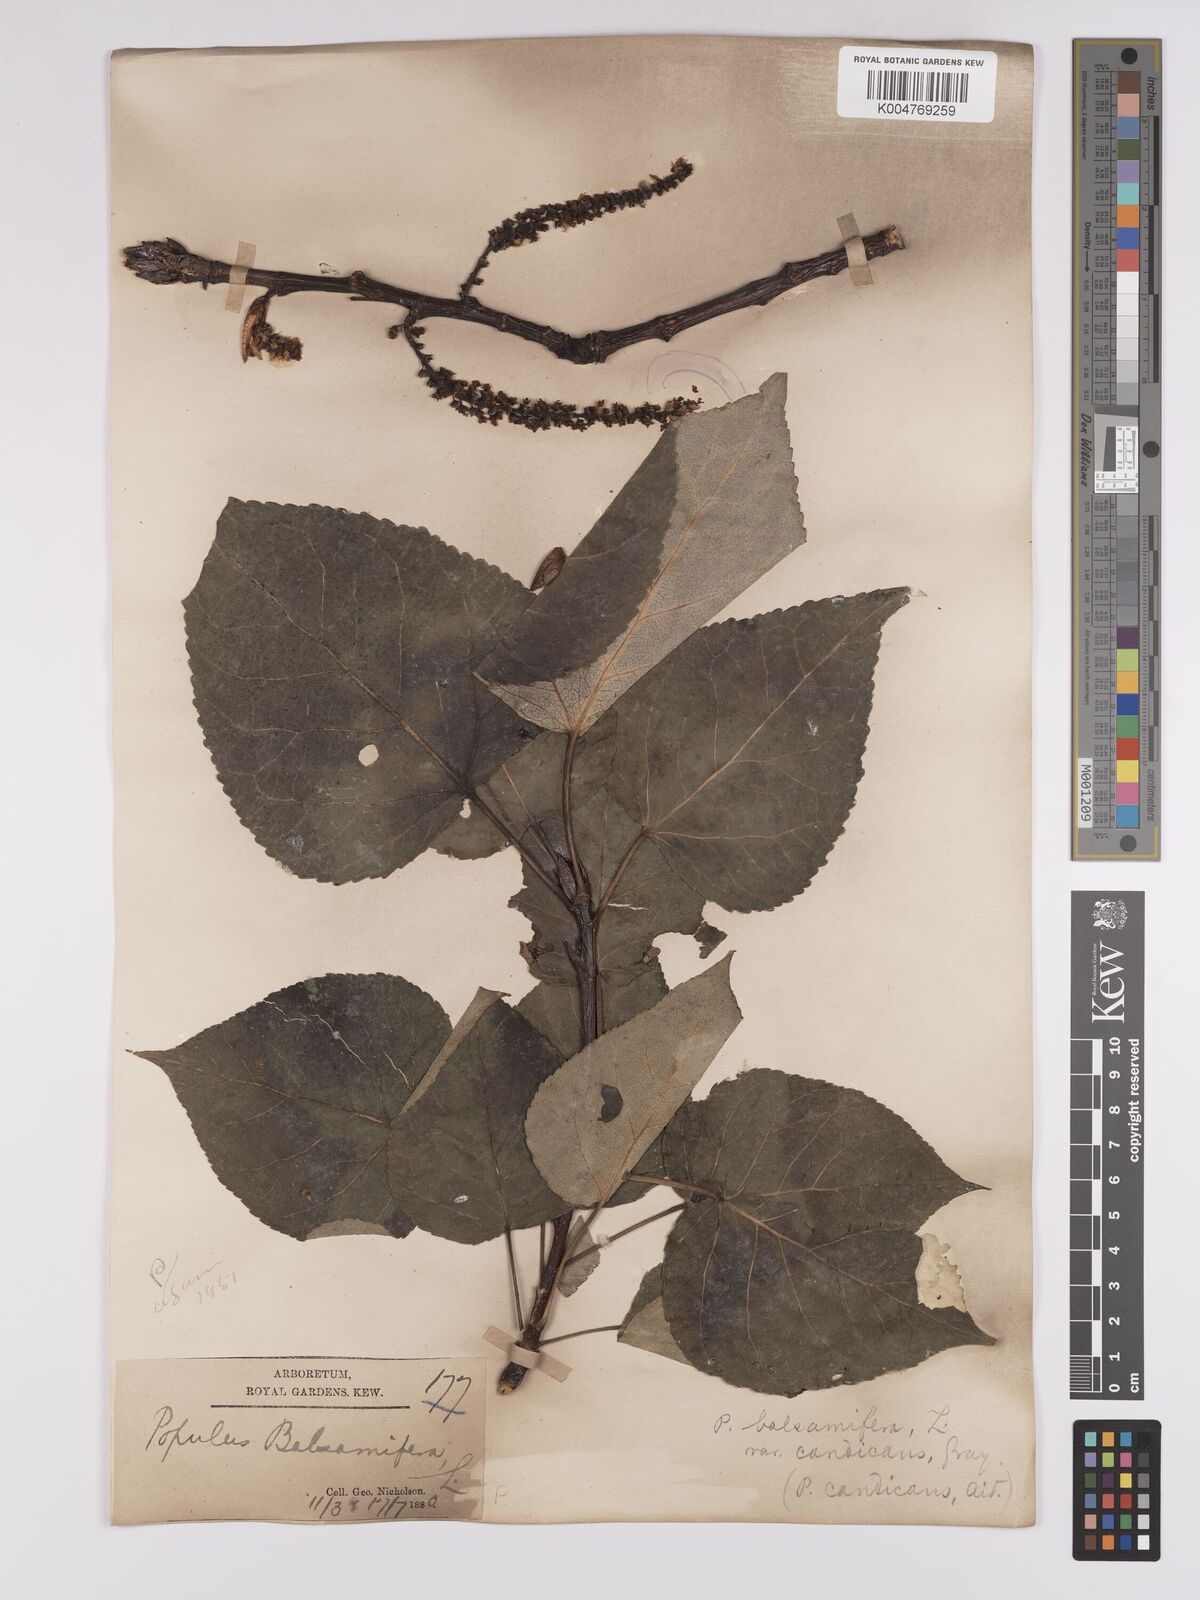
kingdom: Plantae
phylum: Tracheophyta
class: Magnoliopsida
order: Malpighiales
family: Salicaceae
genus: Populus
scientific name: Populus jackii
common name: Balm-of-gilead
